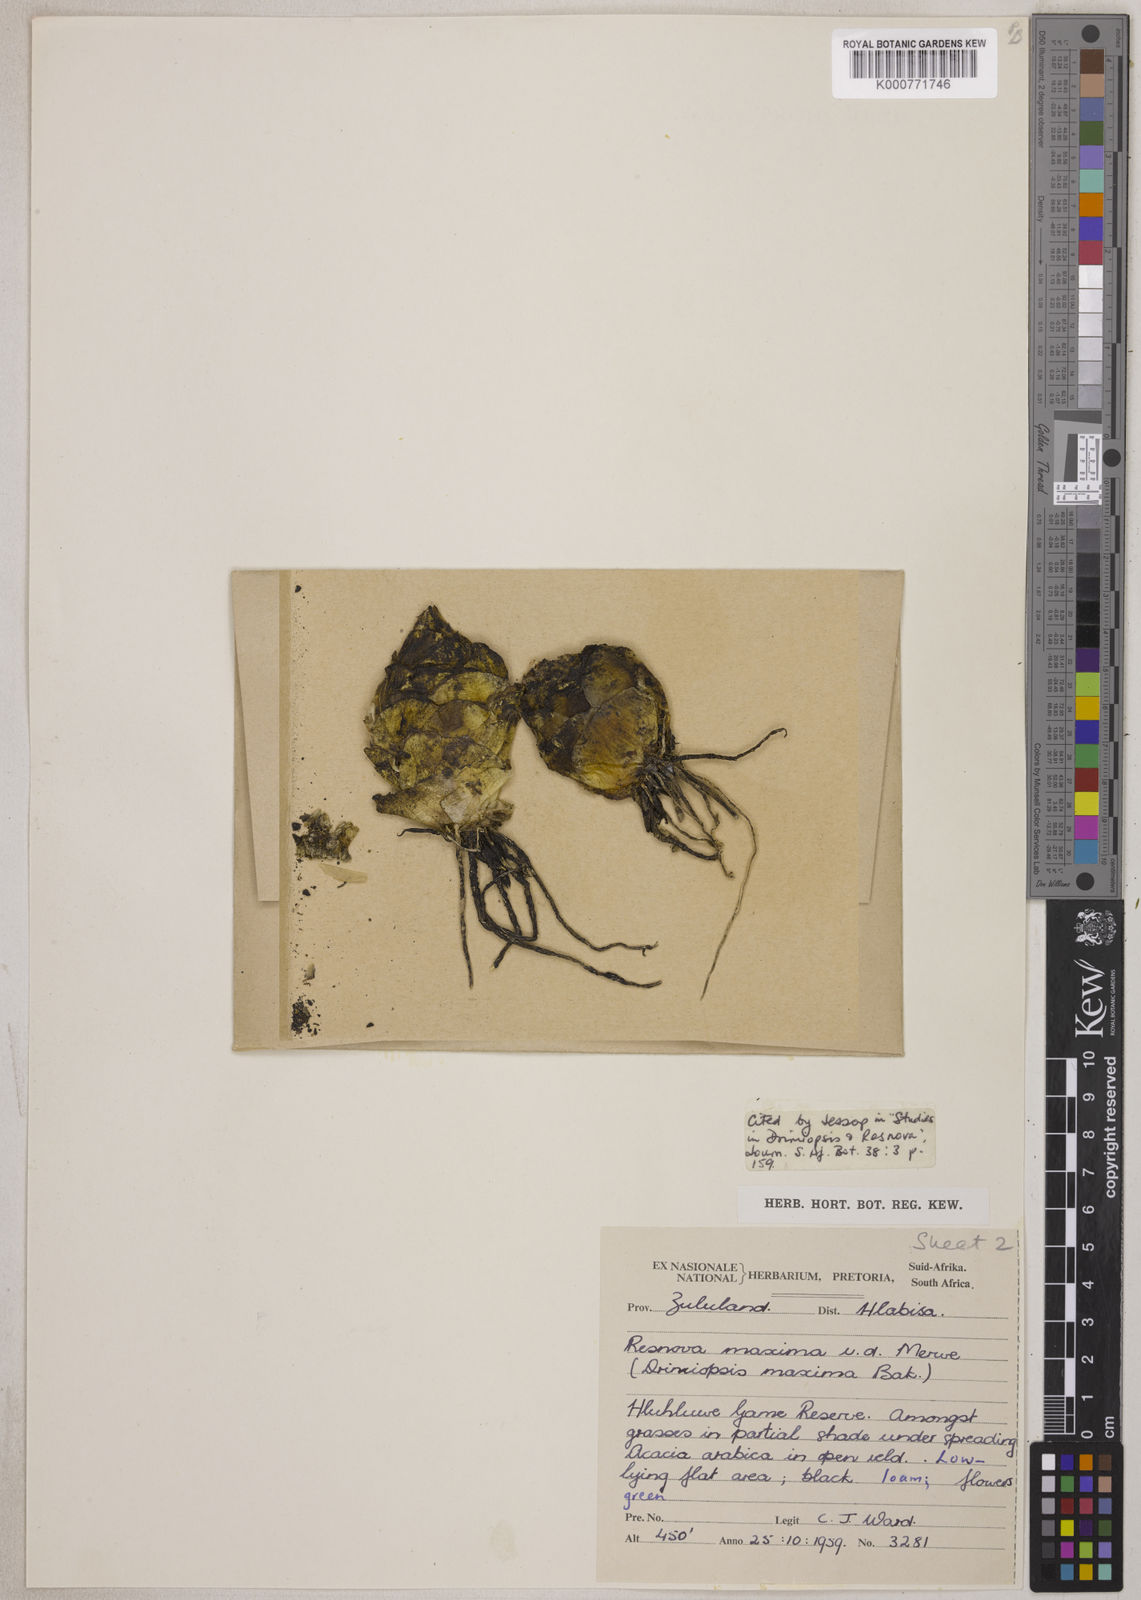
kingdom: Plantae
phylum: Tracheophyta
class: Liliopsida
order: Asparagales
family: Asparagaceae
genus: Resnova
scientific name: Resnova humifusa
